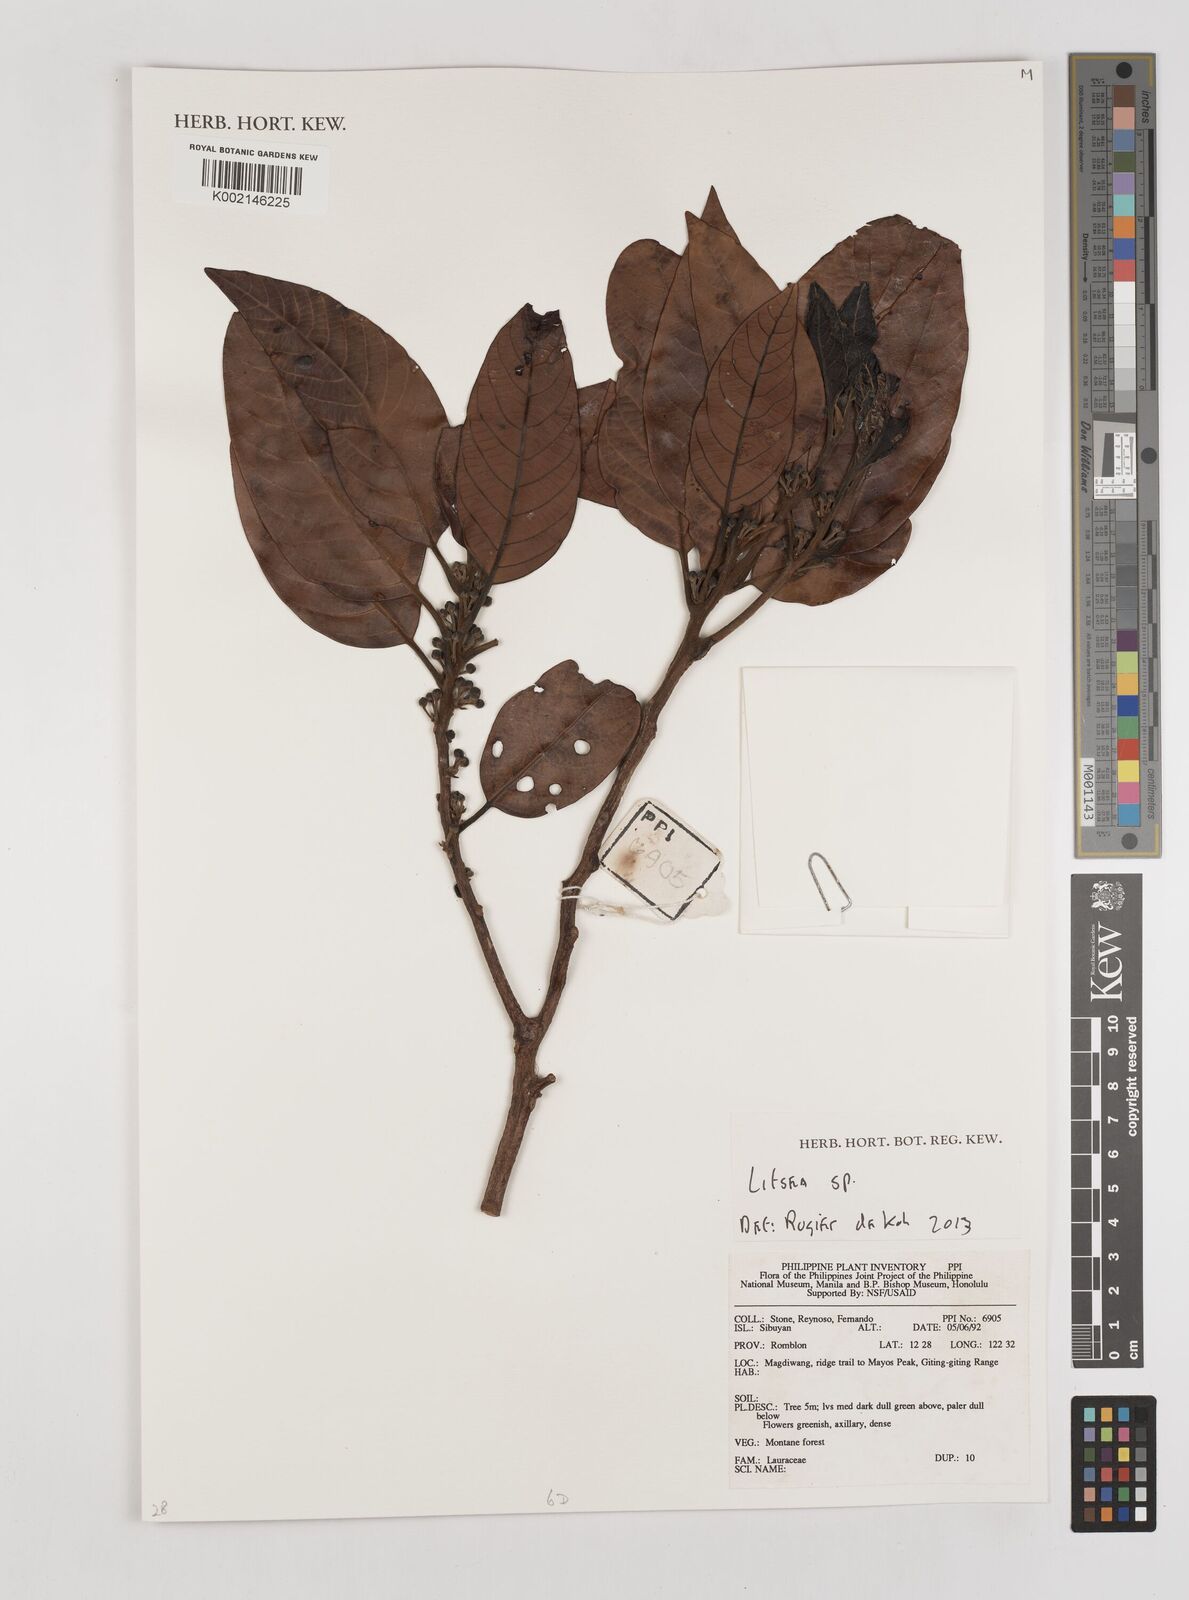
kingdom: Plantae
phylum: Tracheophyta
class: Magnoliopsida
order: Laurales
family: Lauraceae
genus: Litsea
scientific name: Litsea
